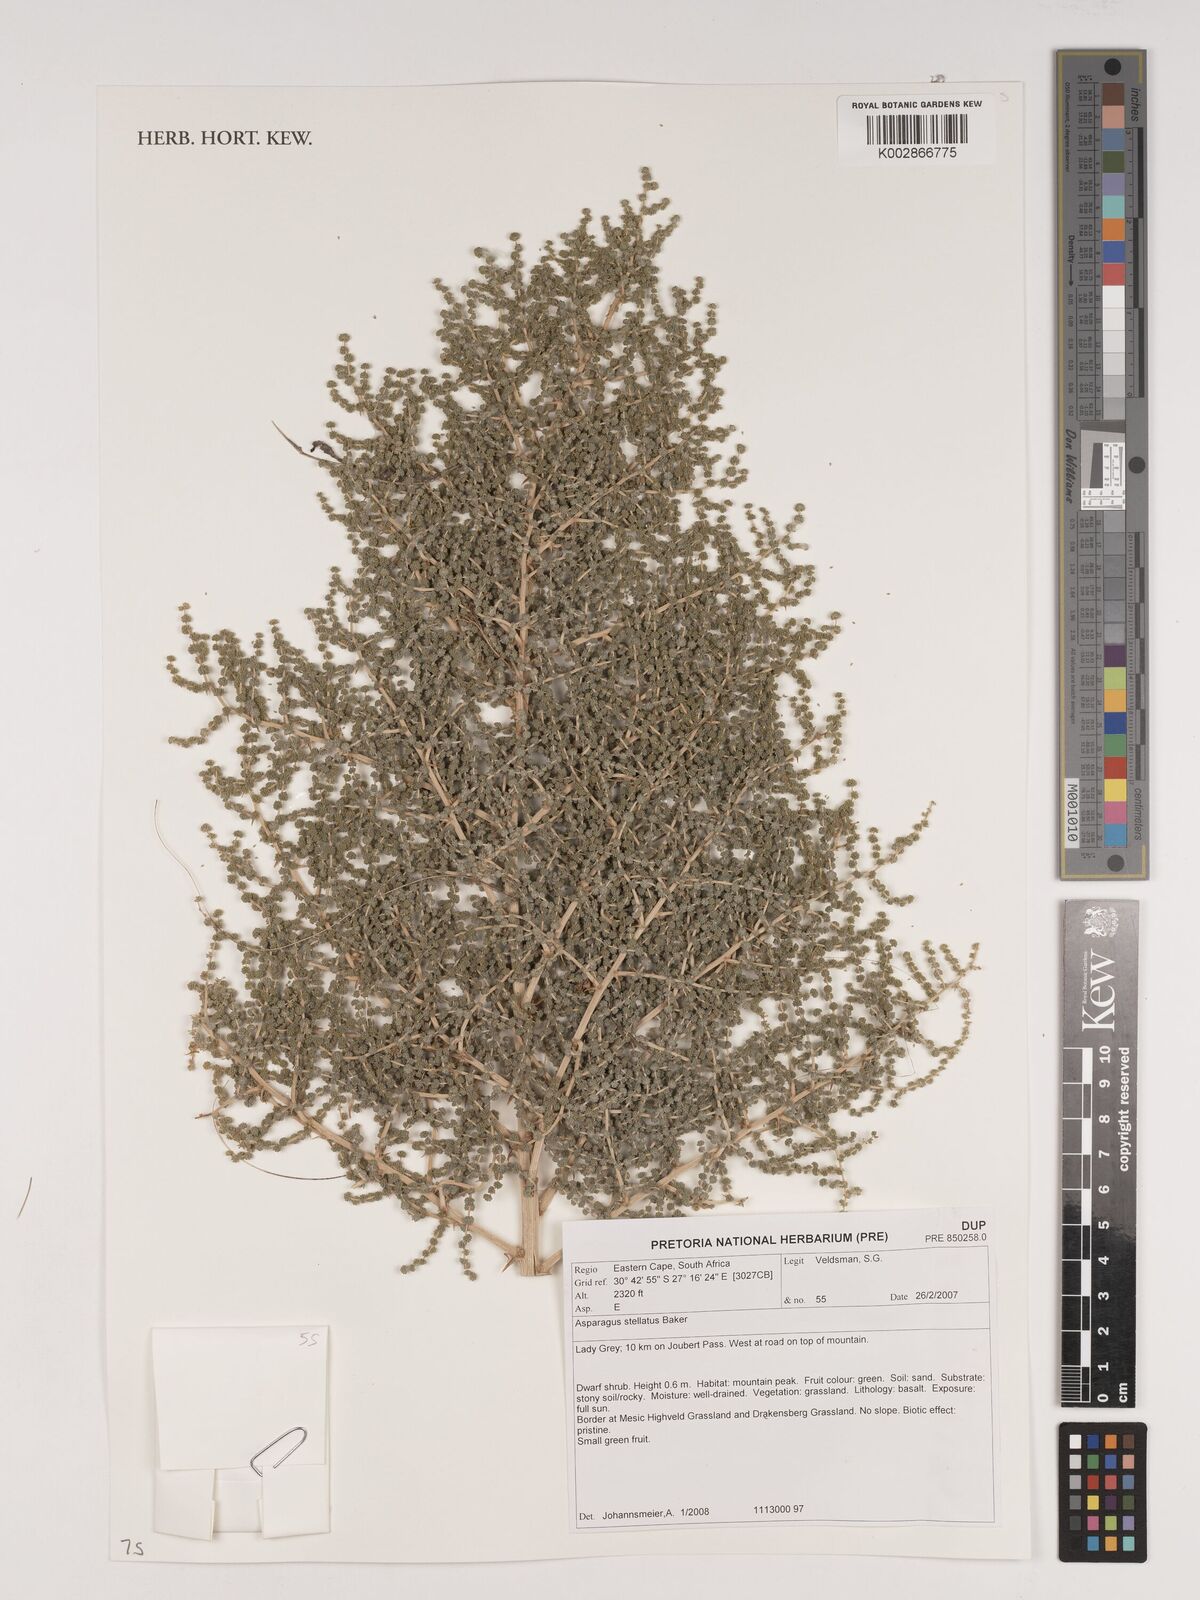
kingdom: Plantae
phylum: Tracheophyta
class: Liliopsida
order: Asparagales
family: Asparagaceae
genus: Asparagus
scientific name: Asparagus microraphis
